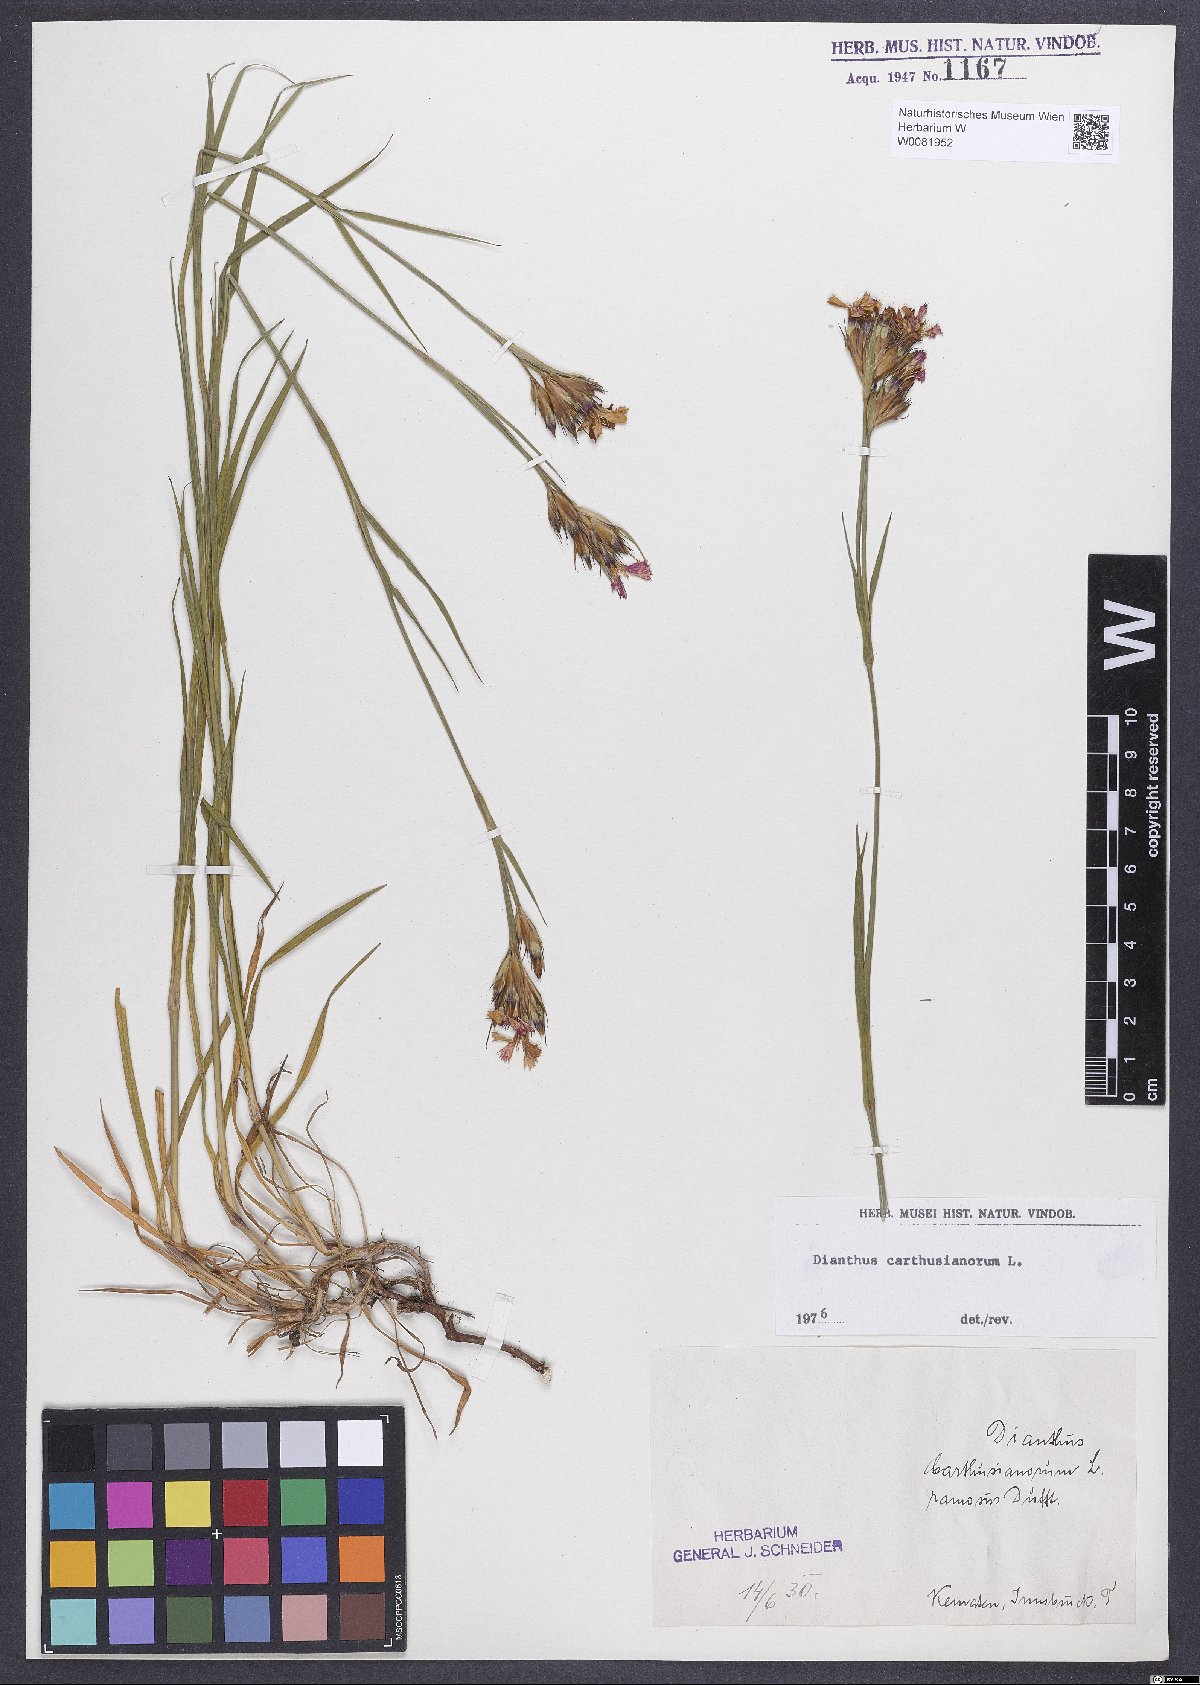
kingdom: Plantae
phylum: Tracheophyta
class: Magnoliopsida
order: Caryophyllales
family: Caryophyllaceae
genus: Dianthus
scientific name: Dianthus carthusianorum
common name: Carthusian pink
